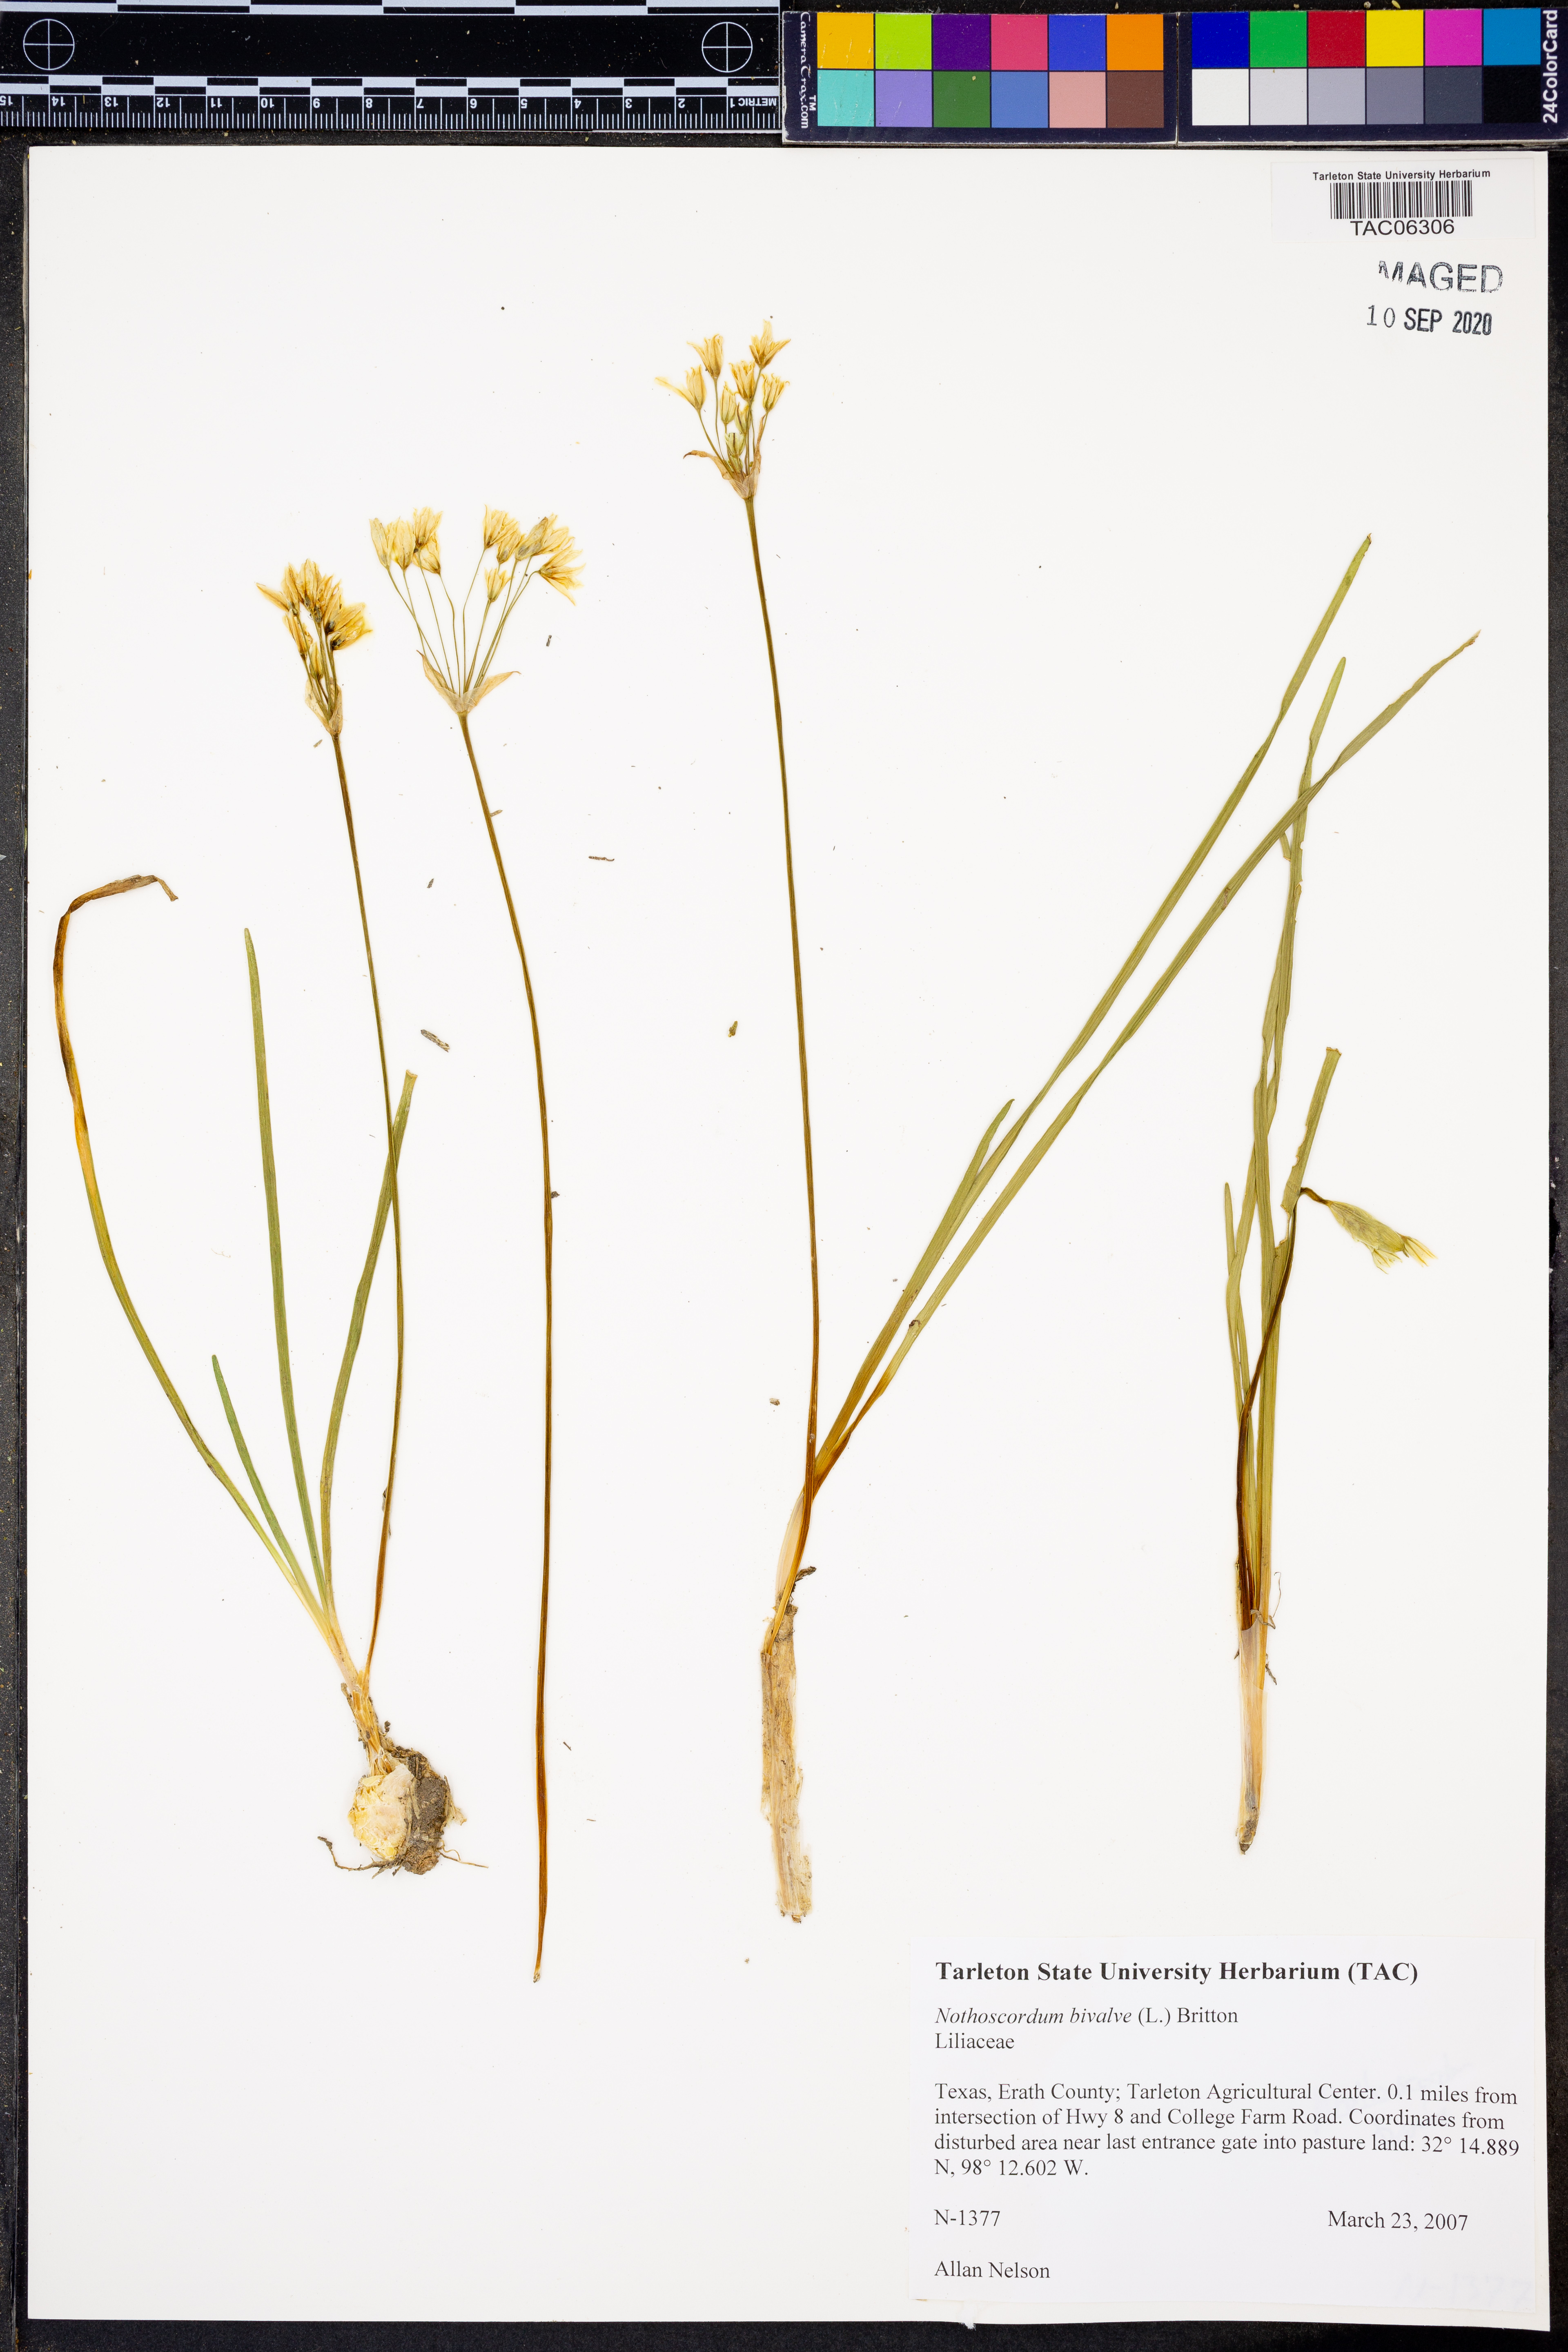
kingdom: Plantae
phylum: Tracheophyta
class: Liliopsida
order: Asparagales
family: Amaryllidaceae
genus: Nothoscordum
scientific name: Nothoscordum bivalve
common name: Crow-poison
